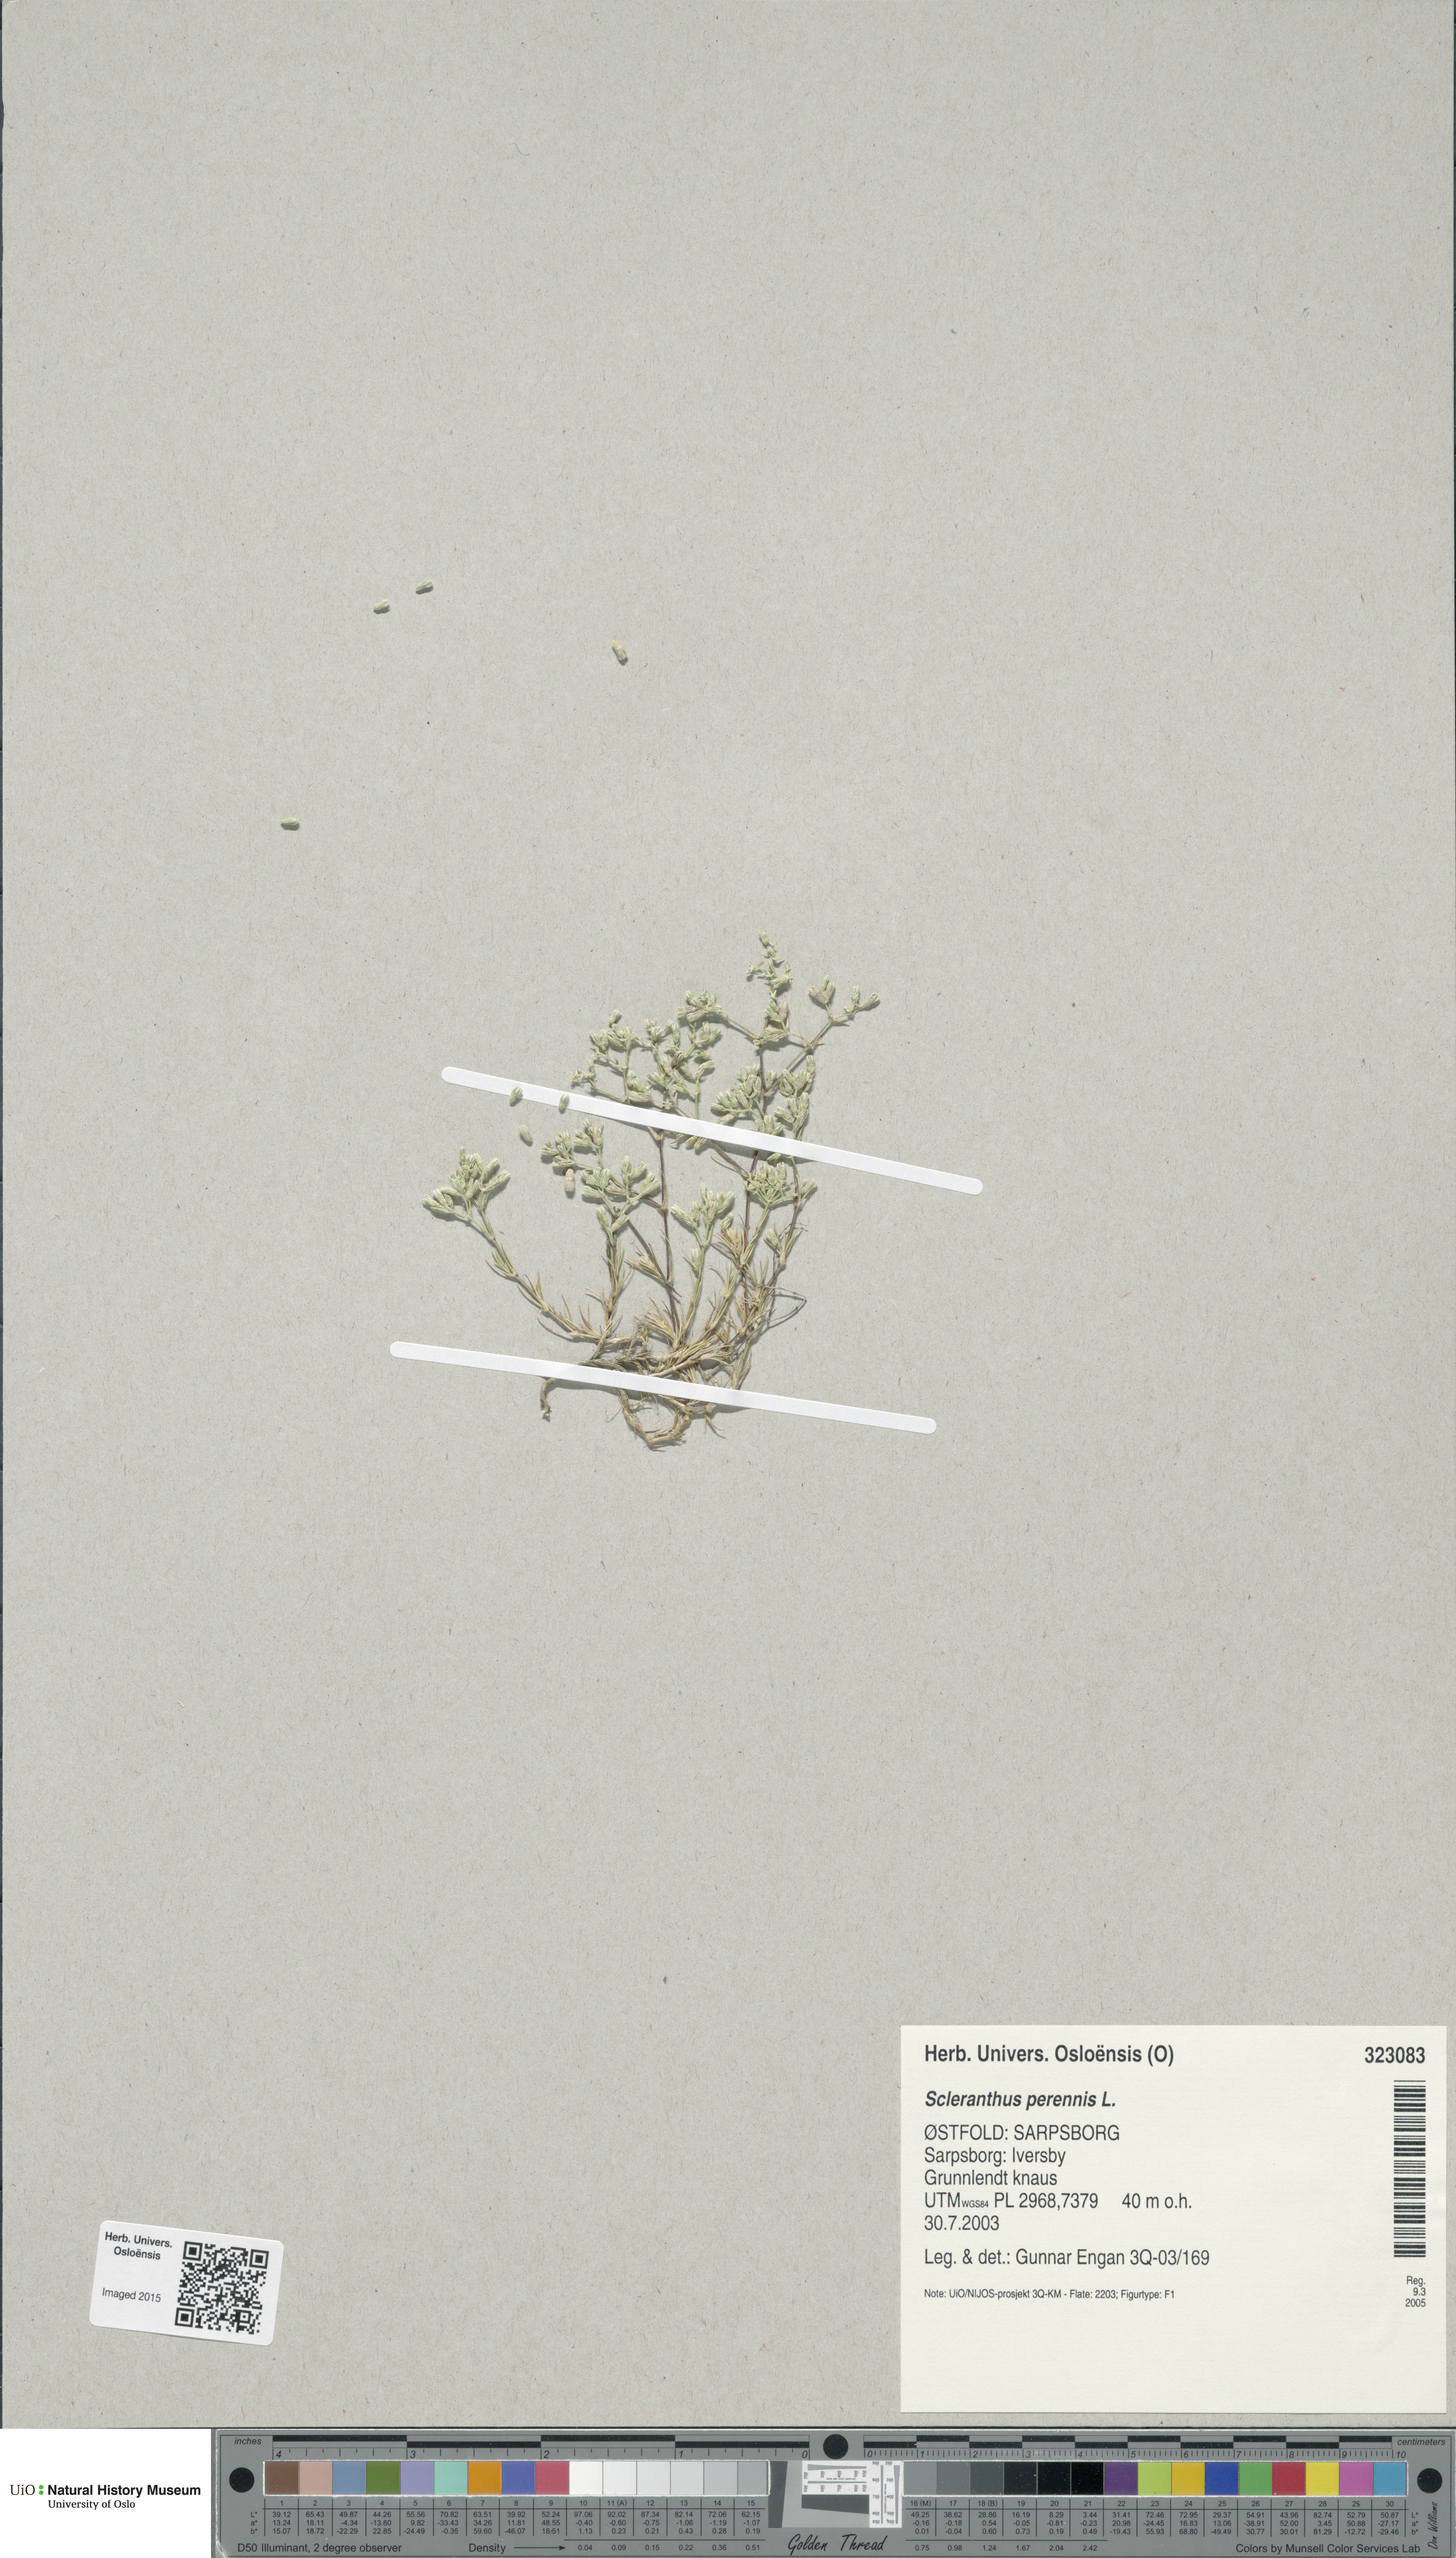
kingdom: Plantae
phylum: Tracheophyta
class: Magnoliopsida
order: Caryophyllales
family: Caryophyllaceae
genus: Scleranthus
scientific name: Scleranthus perennis
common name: Perennial knawel
